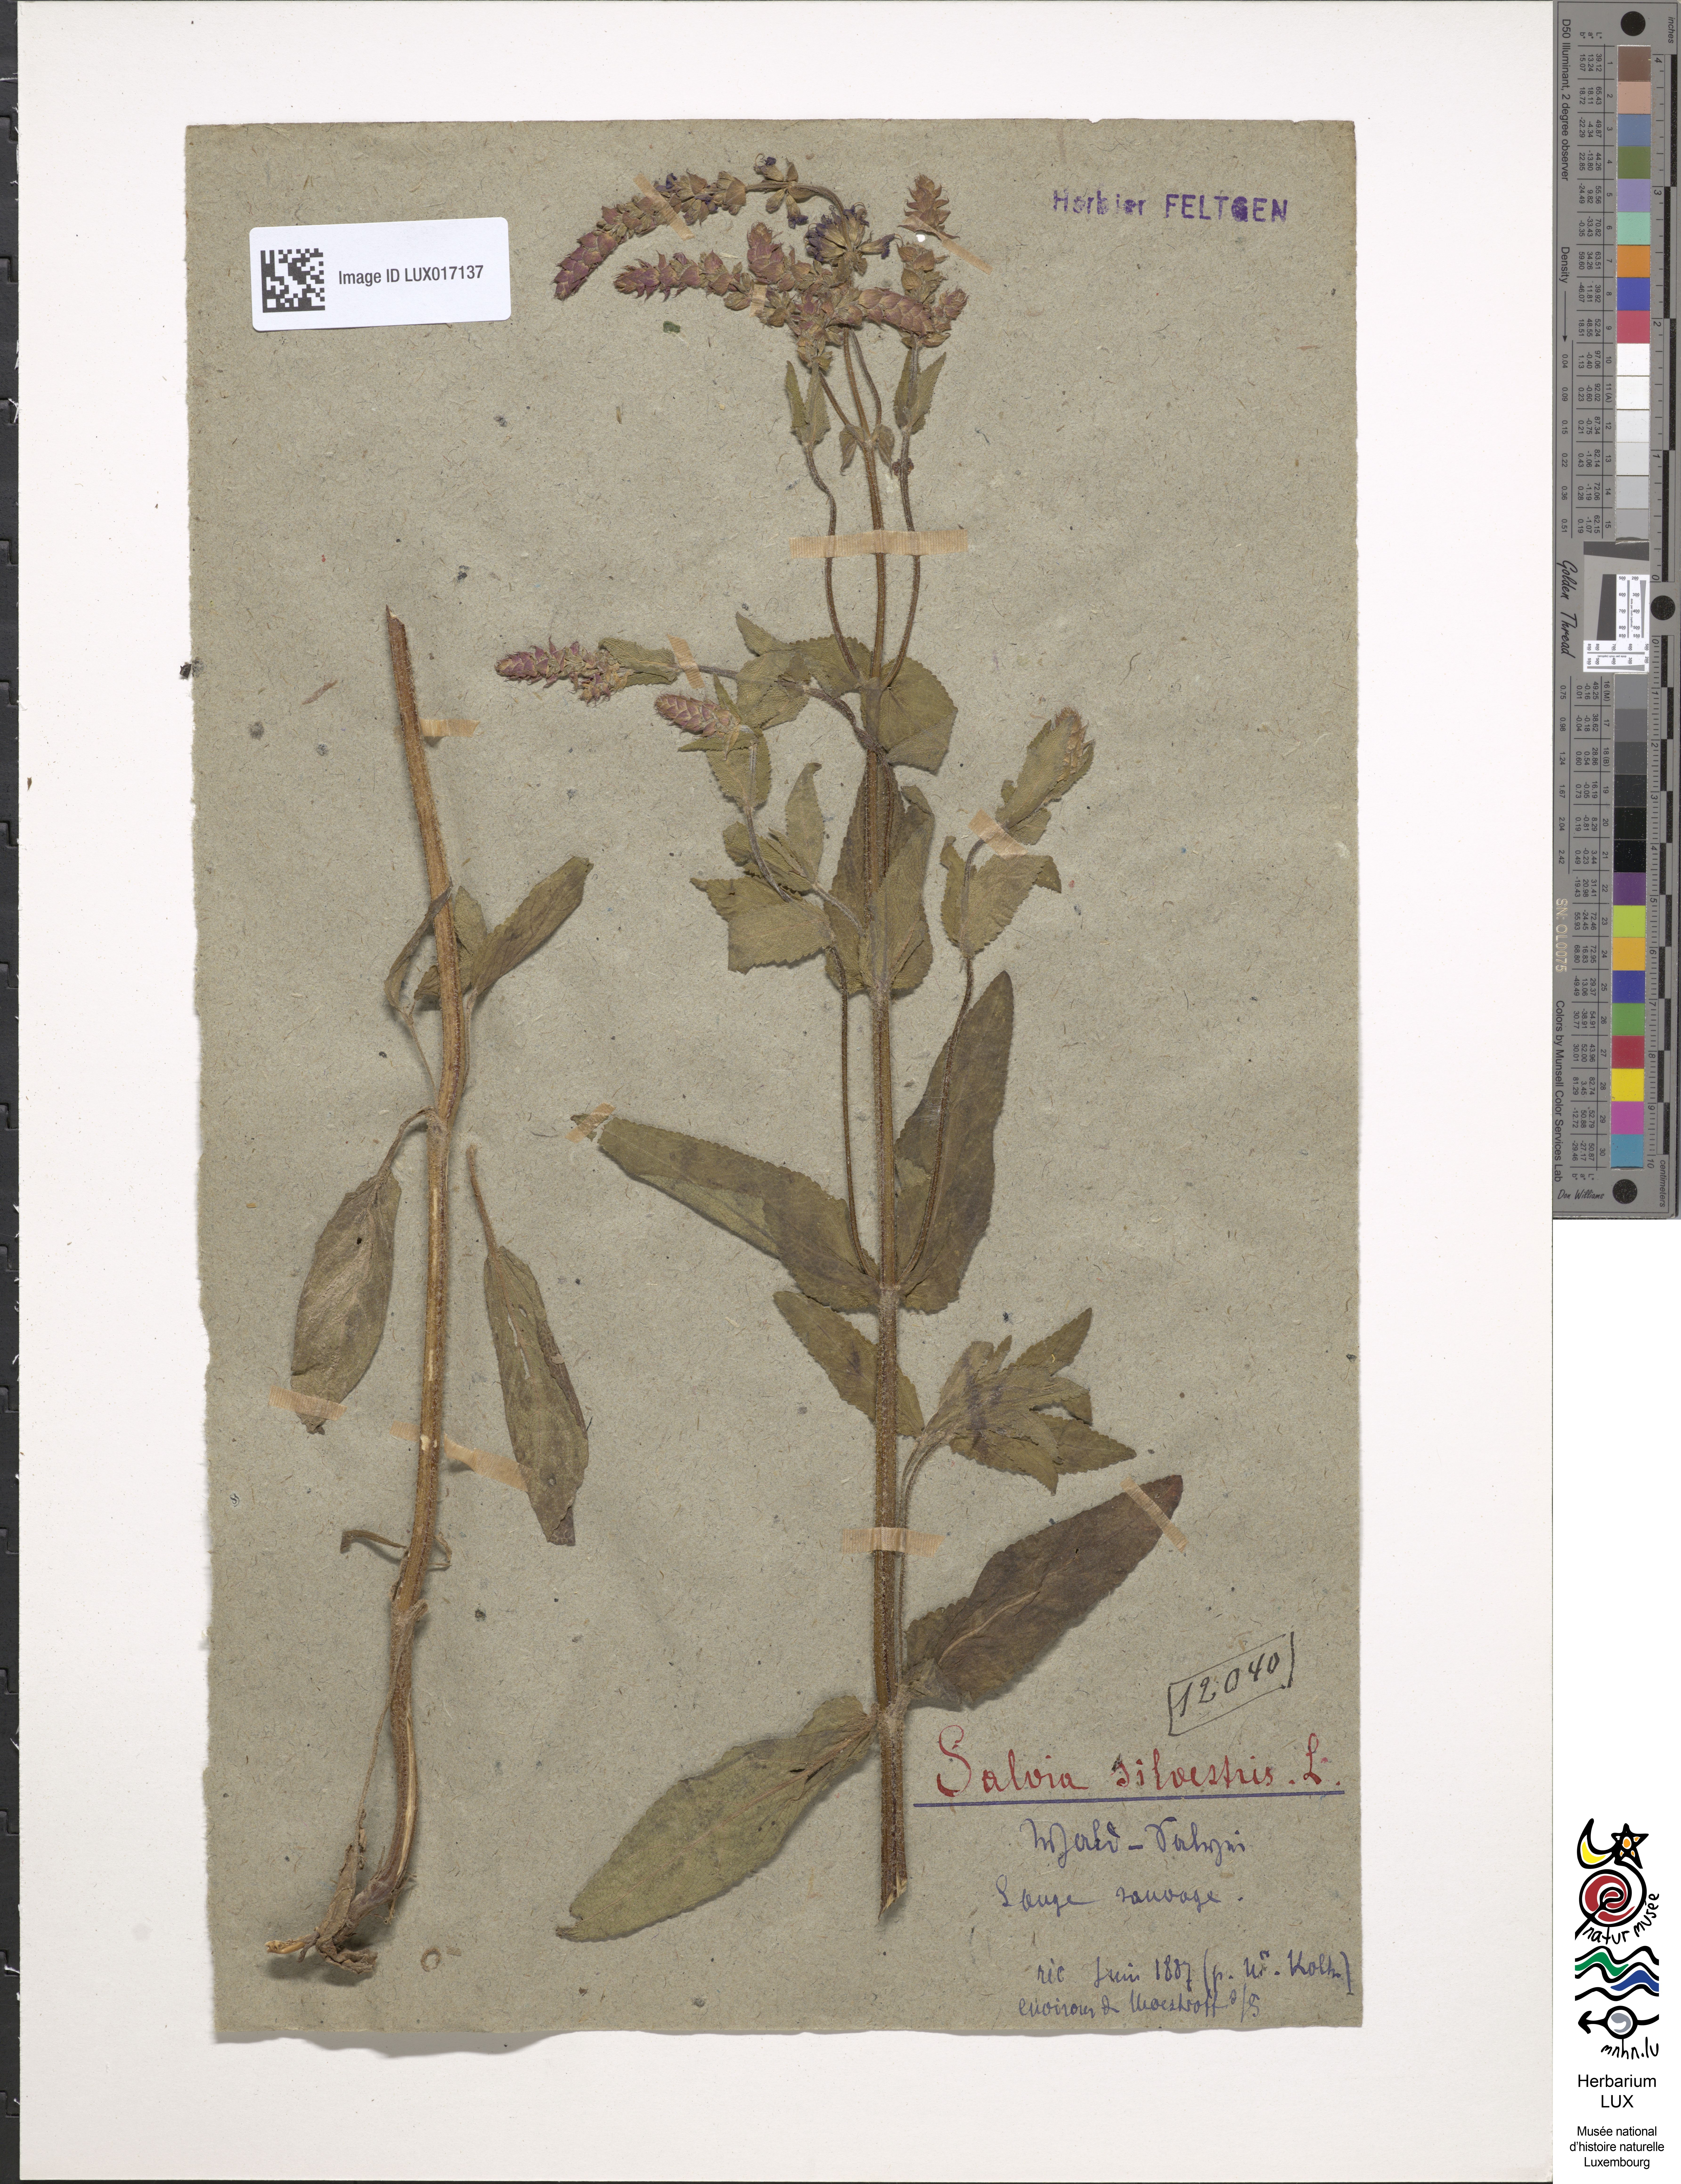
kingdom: Plantae
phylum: Tracheophyta
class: Magnoliopsida
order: Lamiales
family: Lamiaceae
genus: Salvia
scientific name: Salvia nemorosa
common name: Balkan clary
